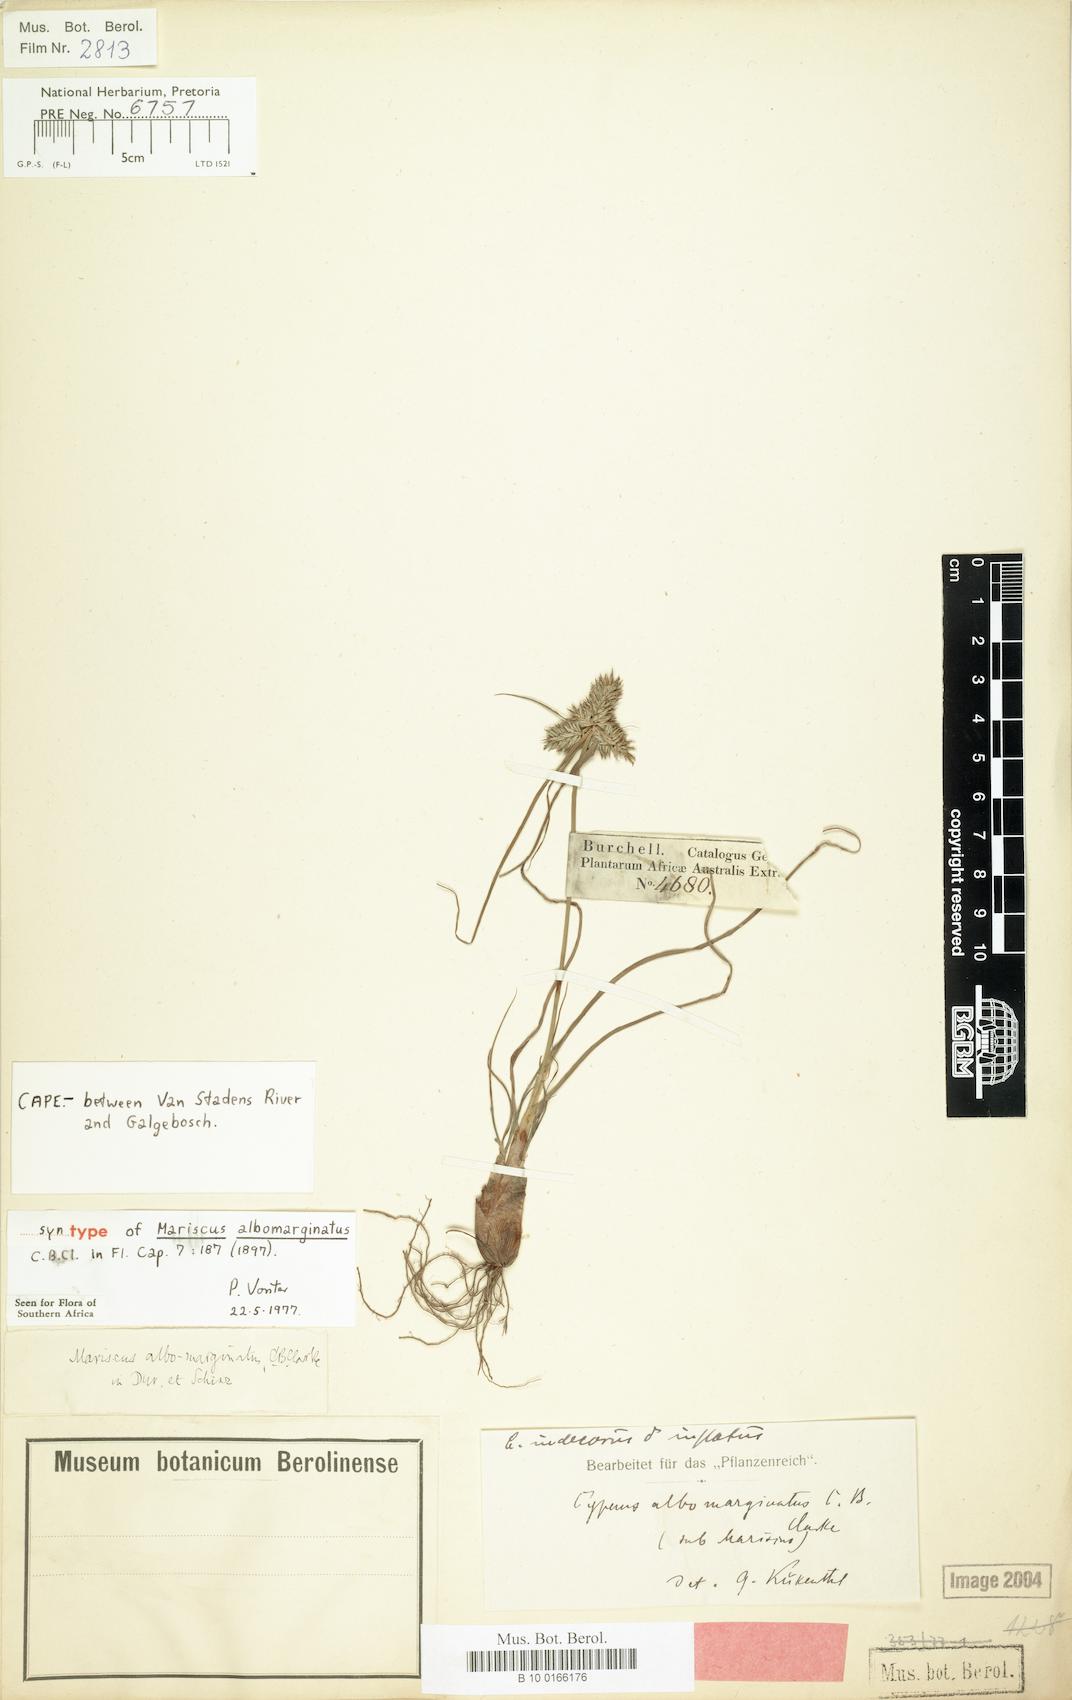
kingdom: Plantae
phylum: Tracheophyta
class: Liliopsida
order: Poales
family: Cyperaceae
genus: Cyperus
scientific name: Cyperus indecorus
